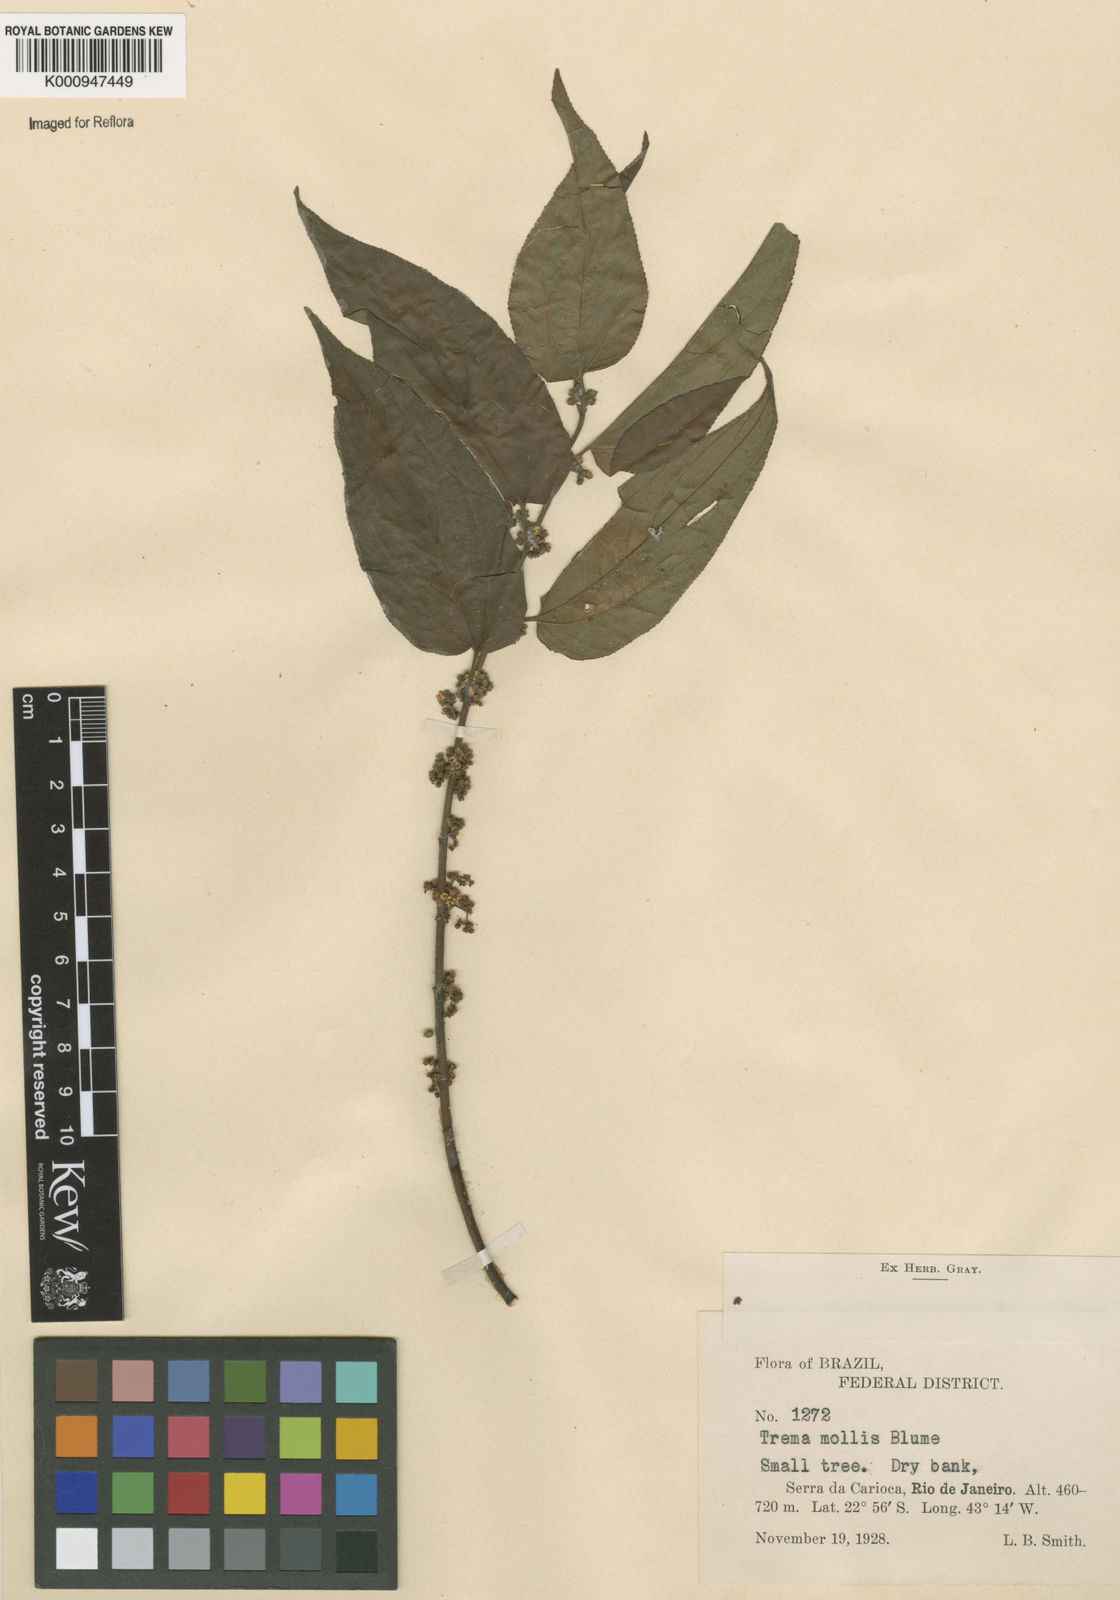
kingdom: Plantae
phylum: Tracheophyta
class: Magnoliopsida
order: Rosales
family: Cannabaceae
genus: Trema
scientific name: Trema micranthum
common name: Jamaican nettletree
